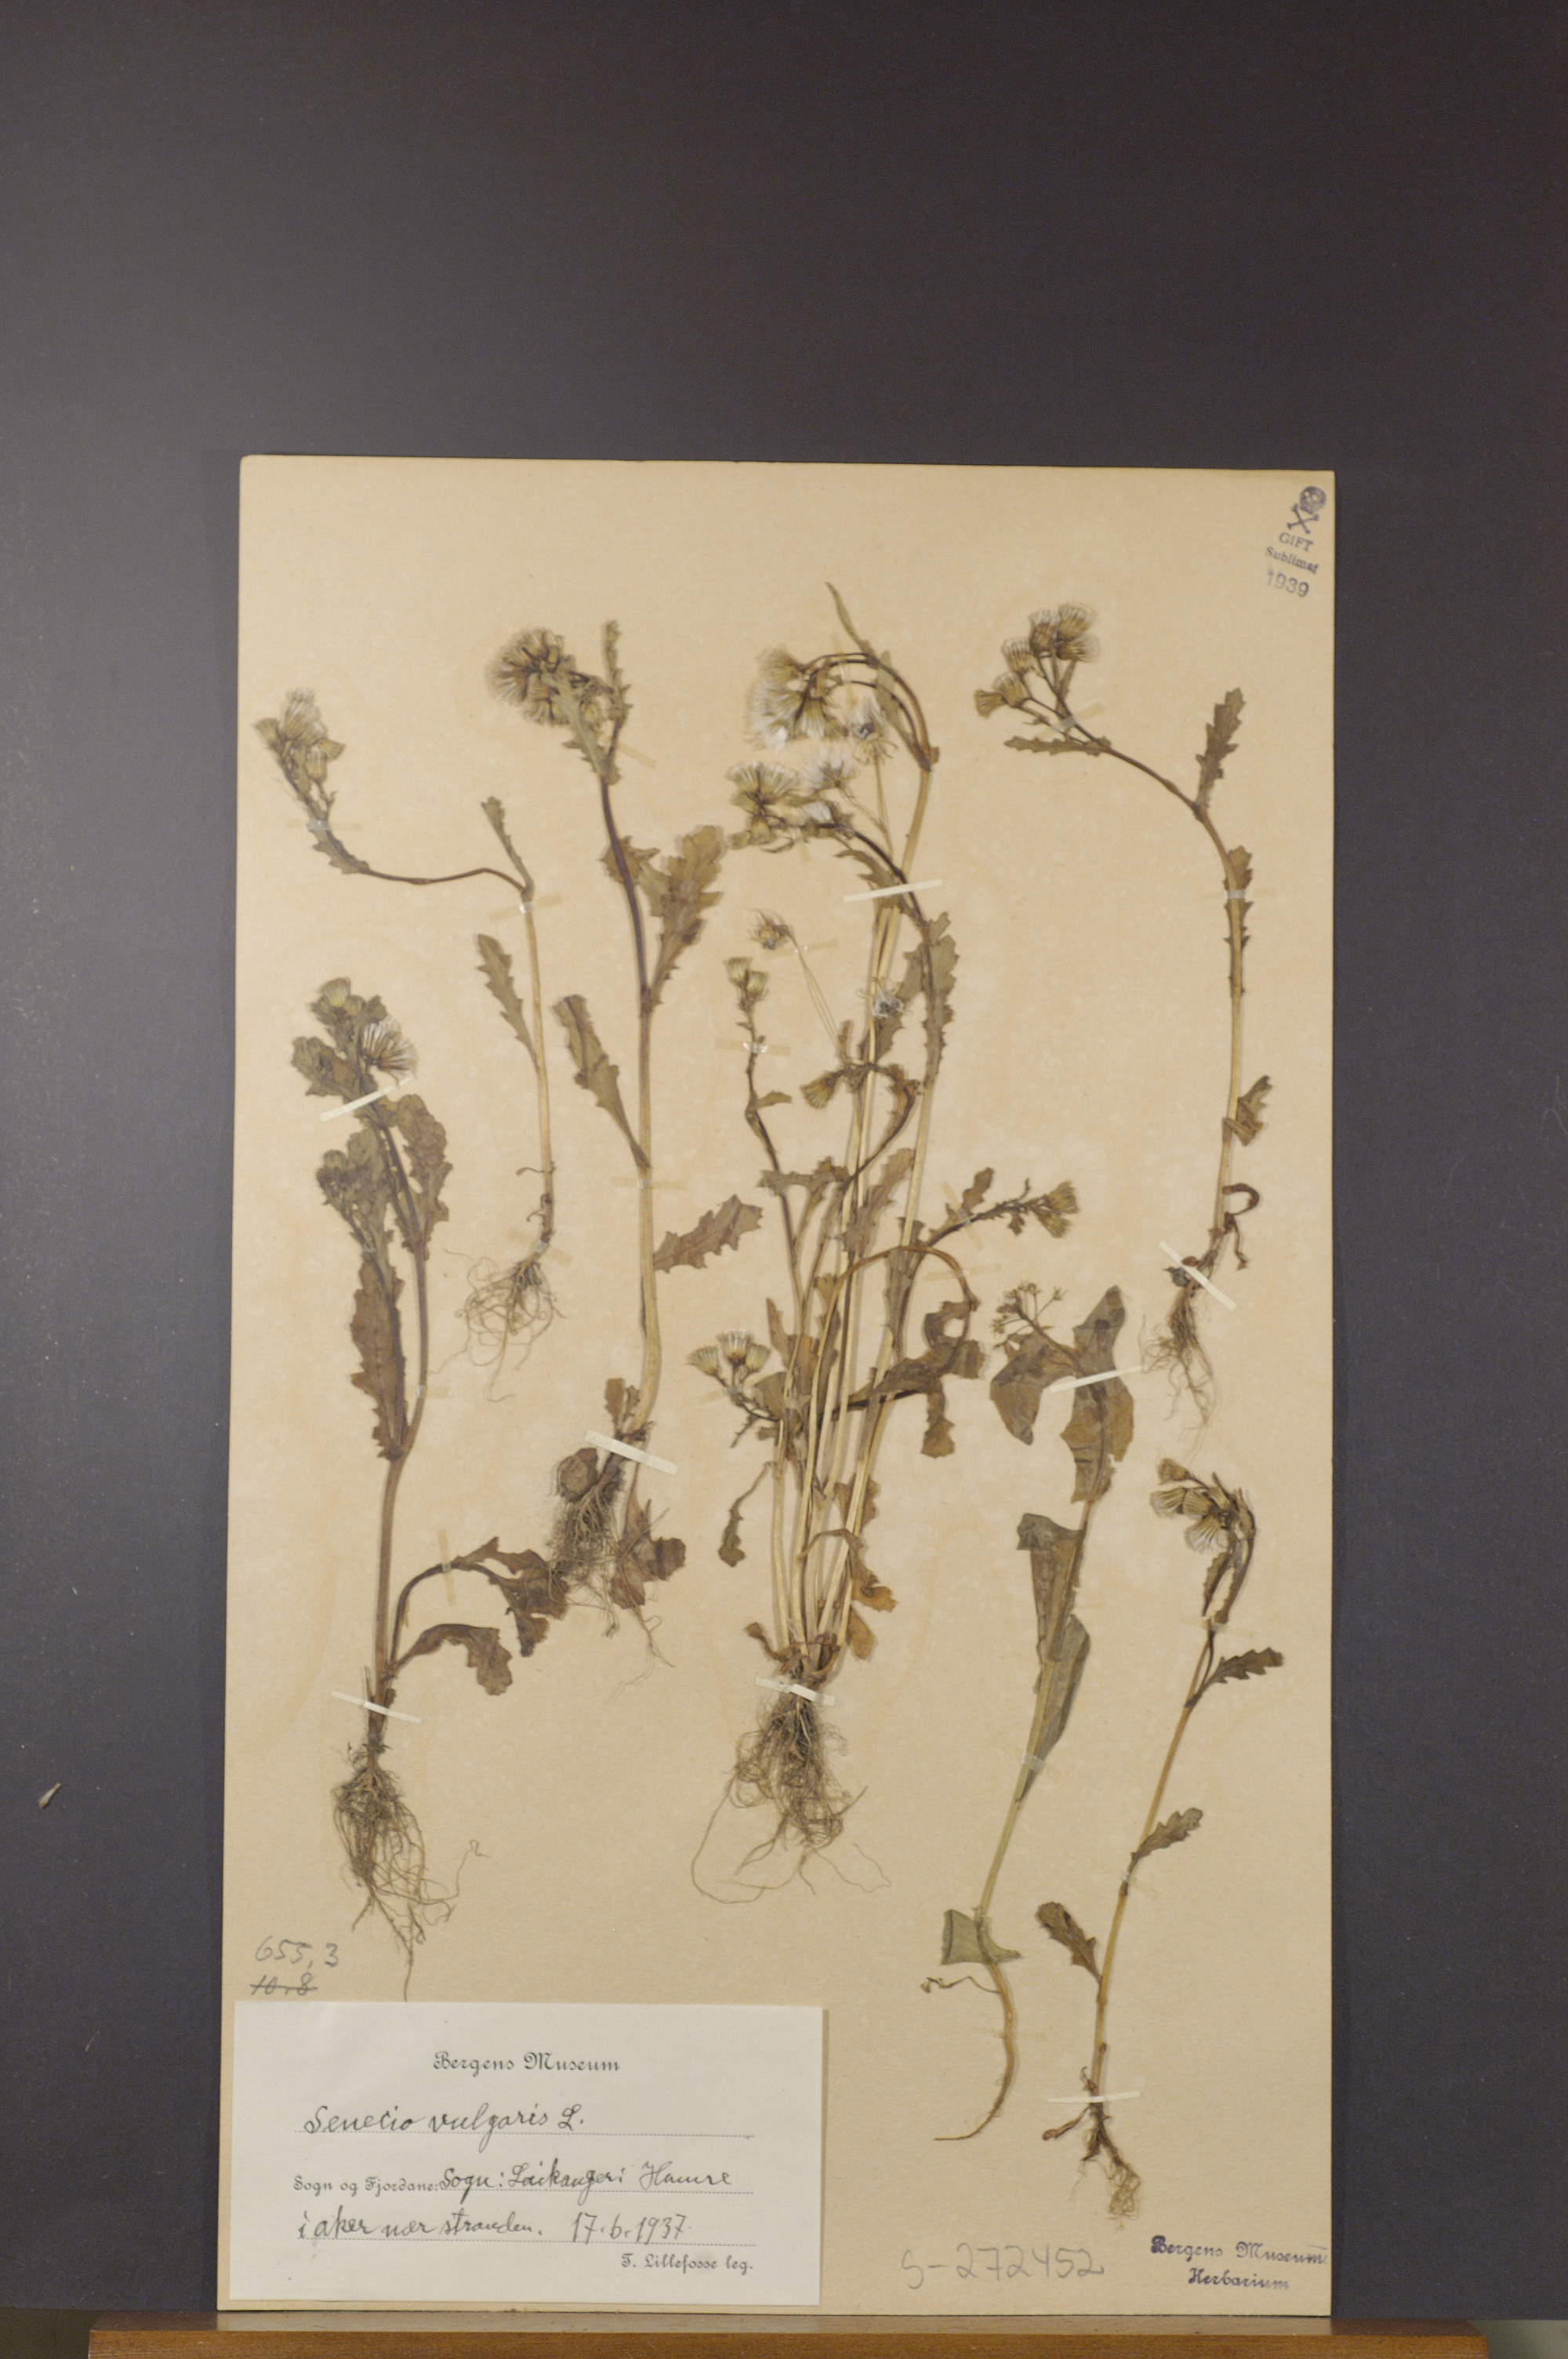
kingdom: Plantae
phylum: Tracheophyta
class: Magnoliopsida
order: Asterales
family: Asteraceae
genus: Senecio
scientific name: Senecio vulgaris
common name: Old-man-in-the-spring
